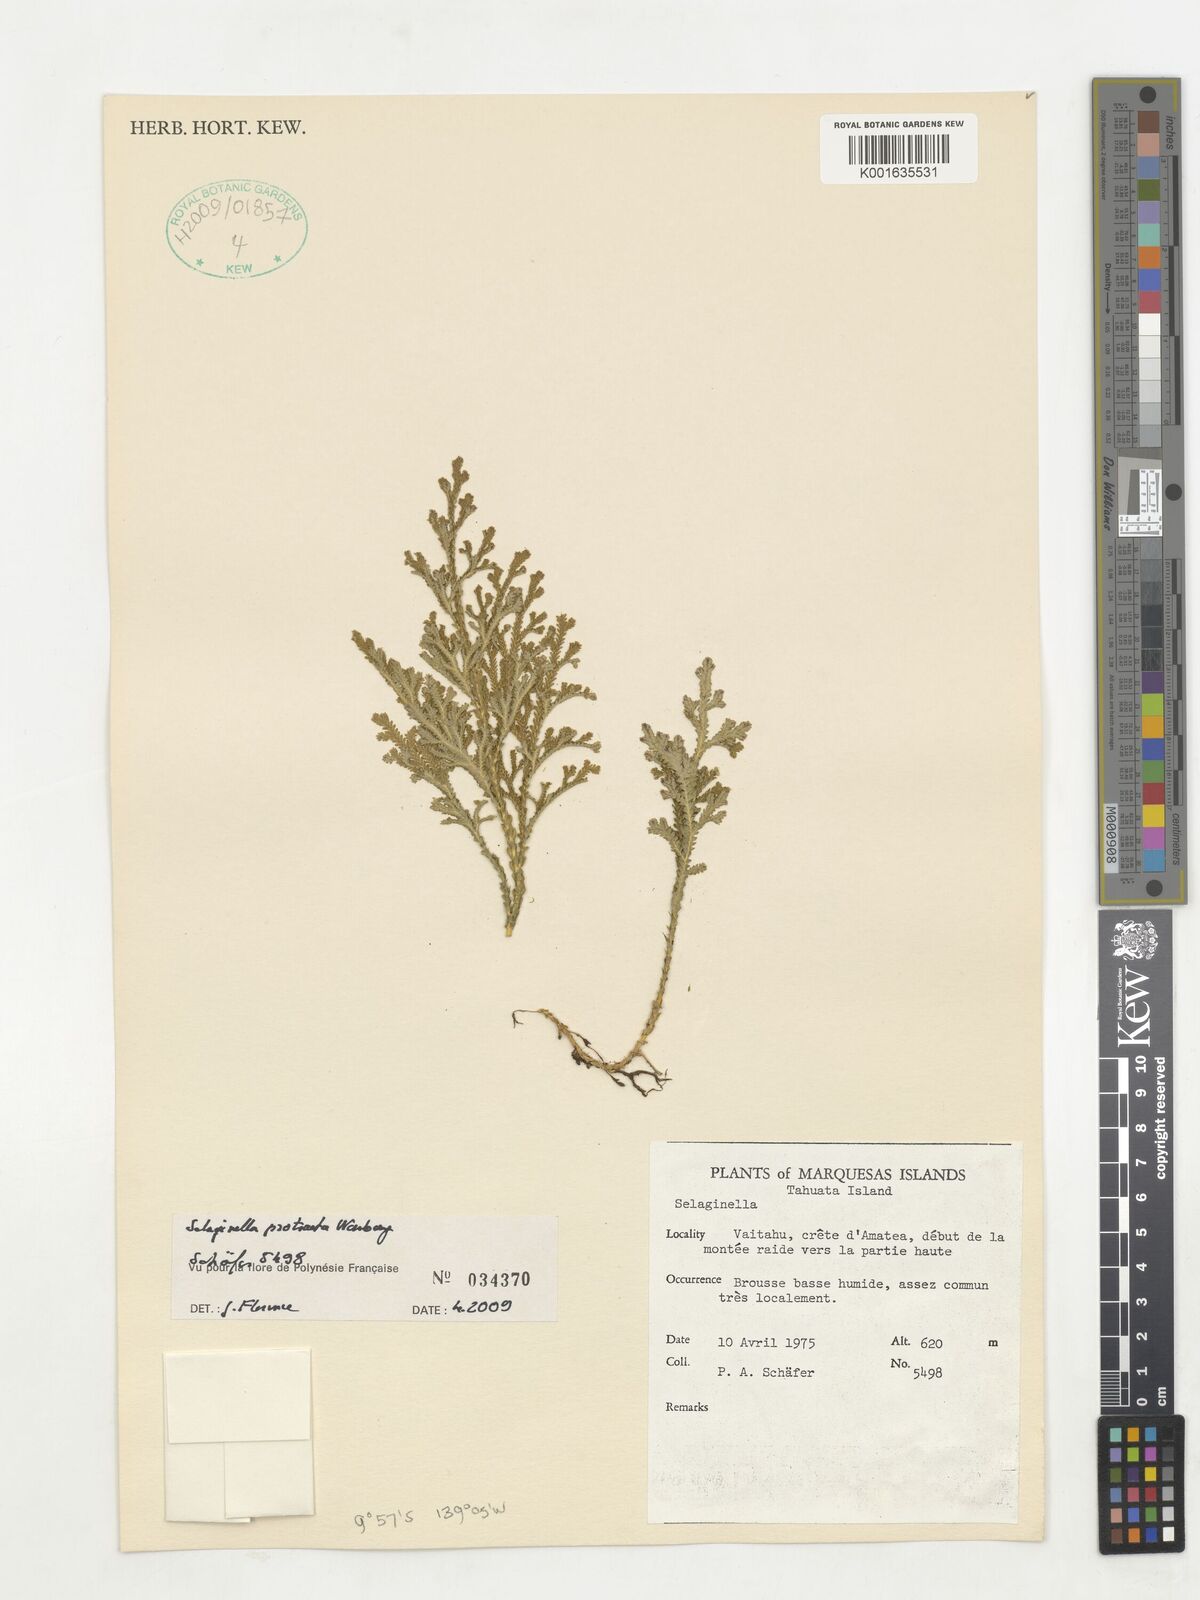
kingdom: Plantae
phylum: Tracheophyta
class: Lycopodiopsida
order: Selaginellales
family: Selaginellaceae
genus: Selaginella
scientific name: Selaginella arbuscula
